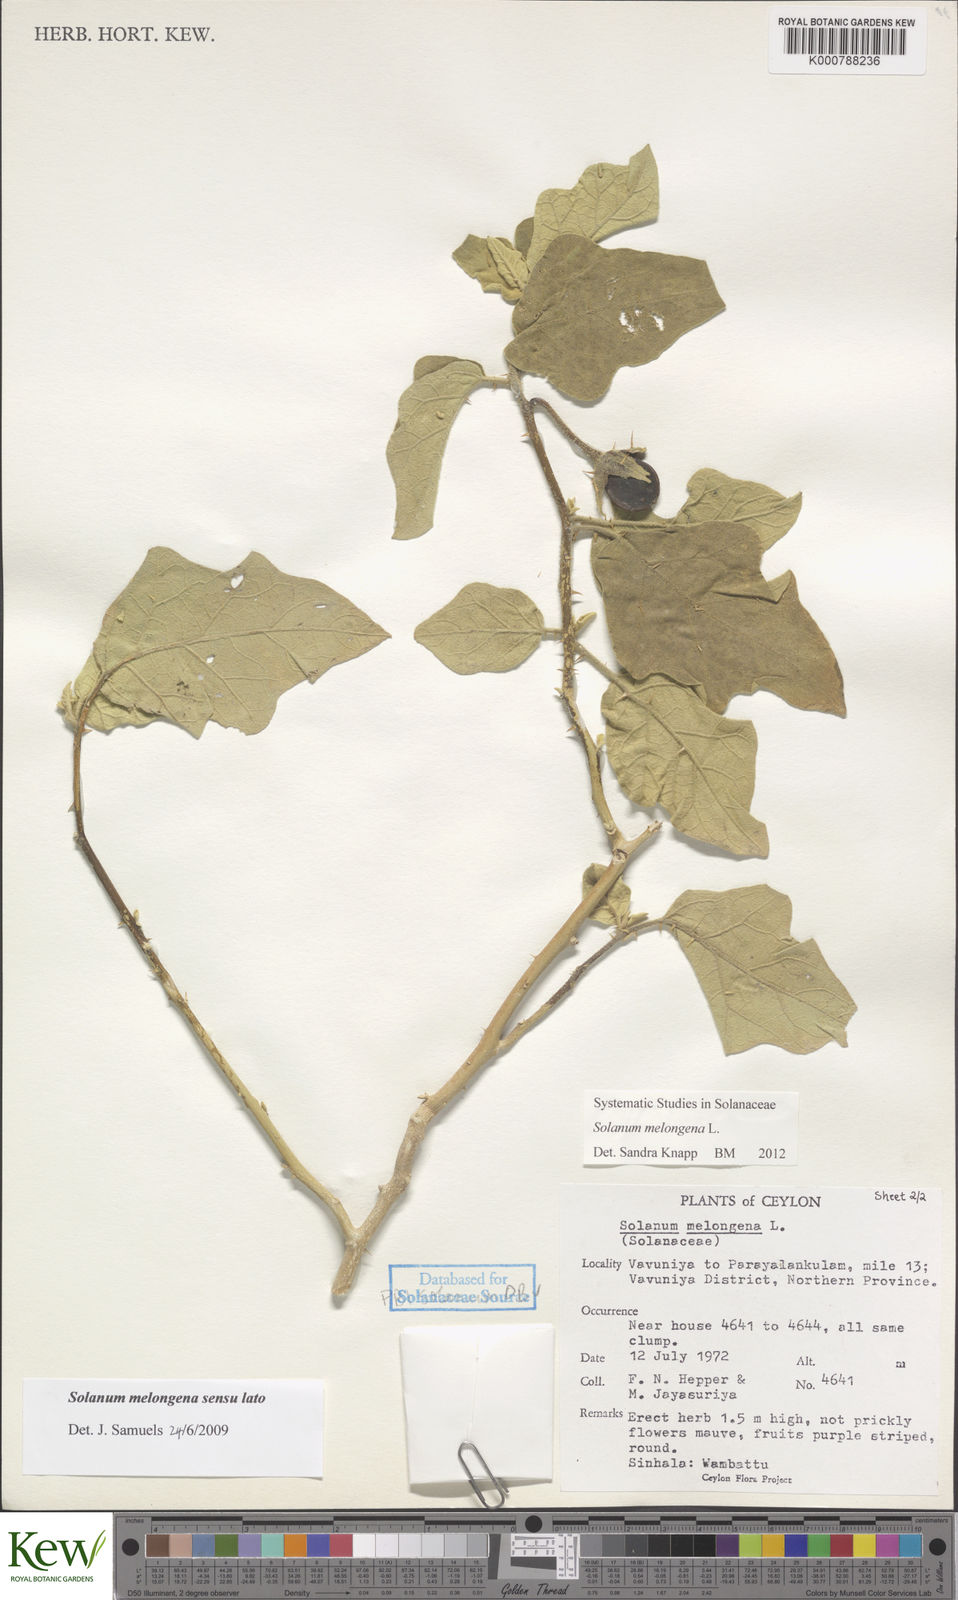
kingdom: Plantae
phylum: Tracheophyta
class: Magnoliopsida
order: Solanales
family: Solanaceae
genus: Solanum
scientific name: Solanum melongena
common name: Eggplant
